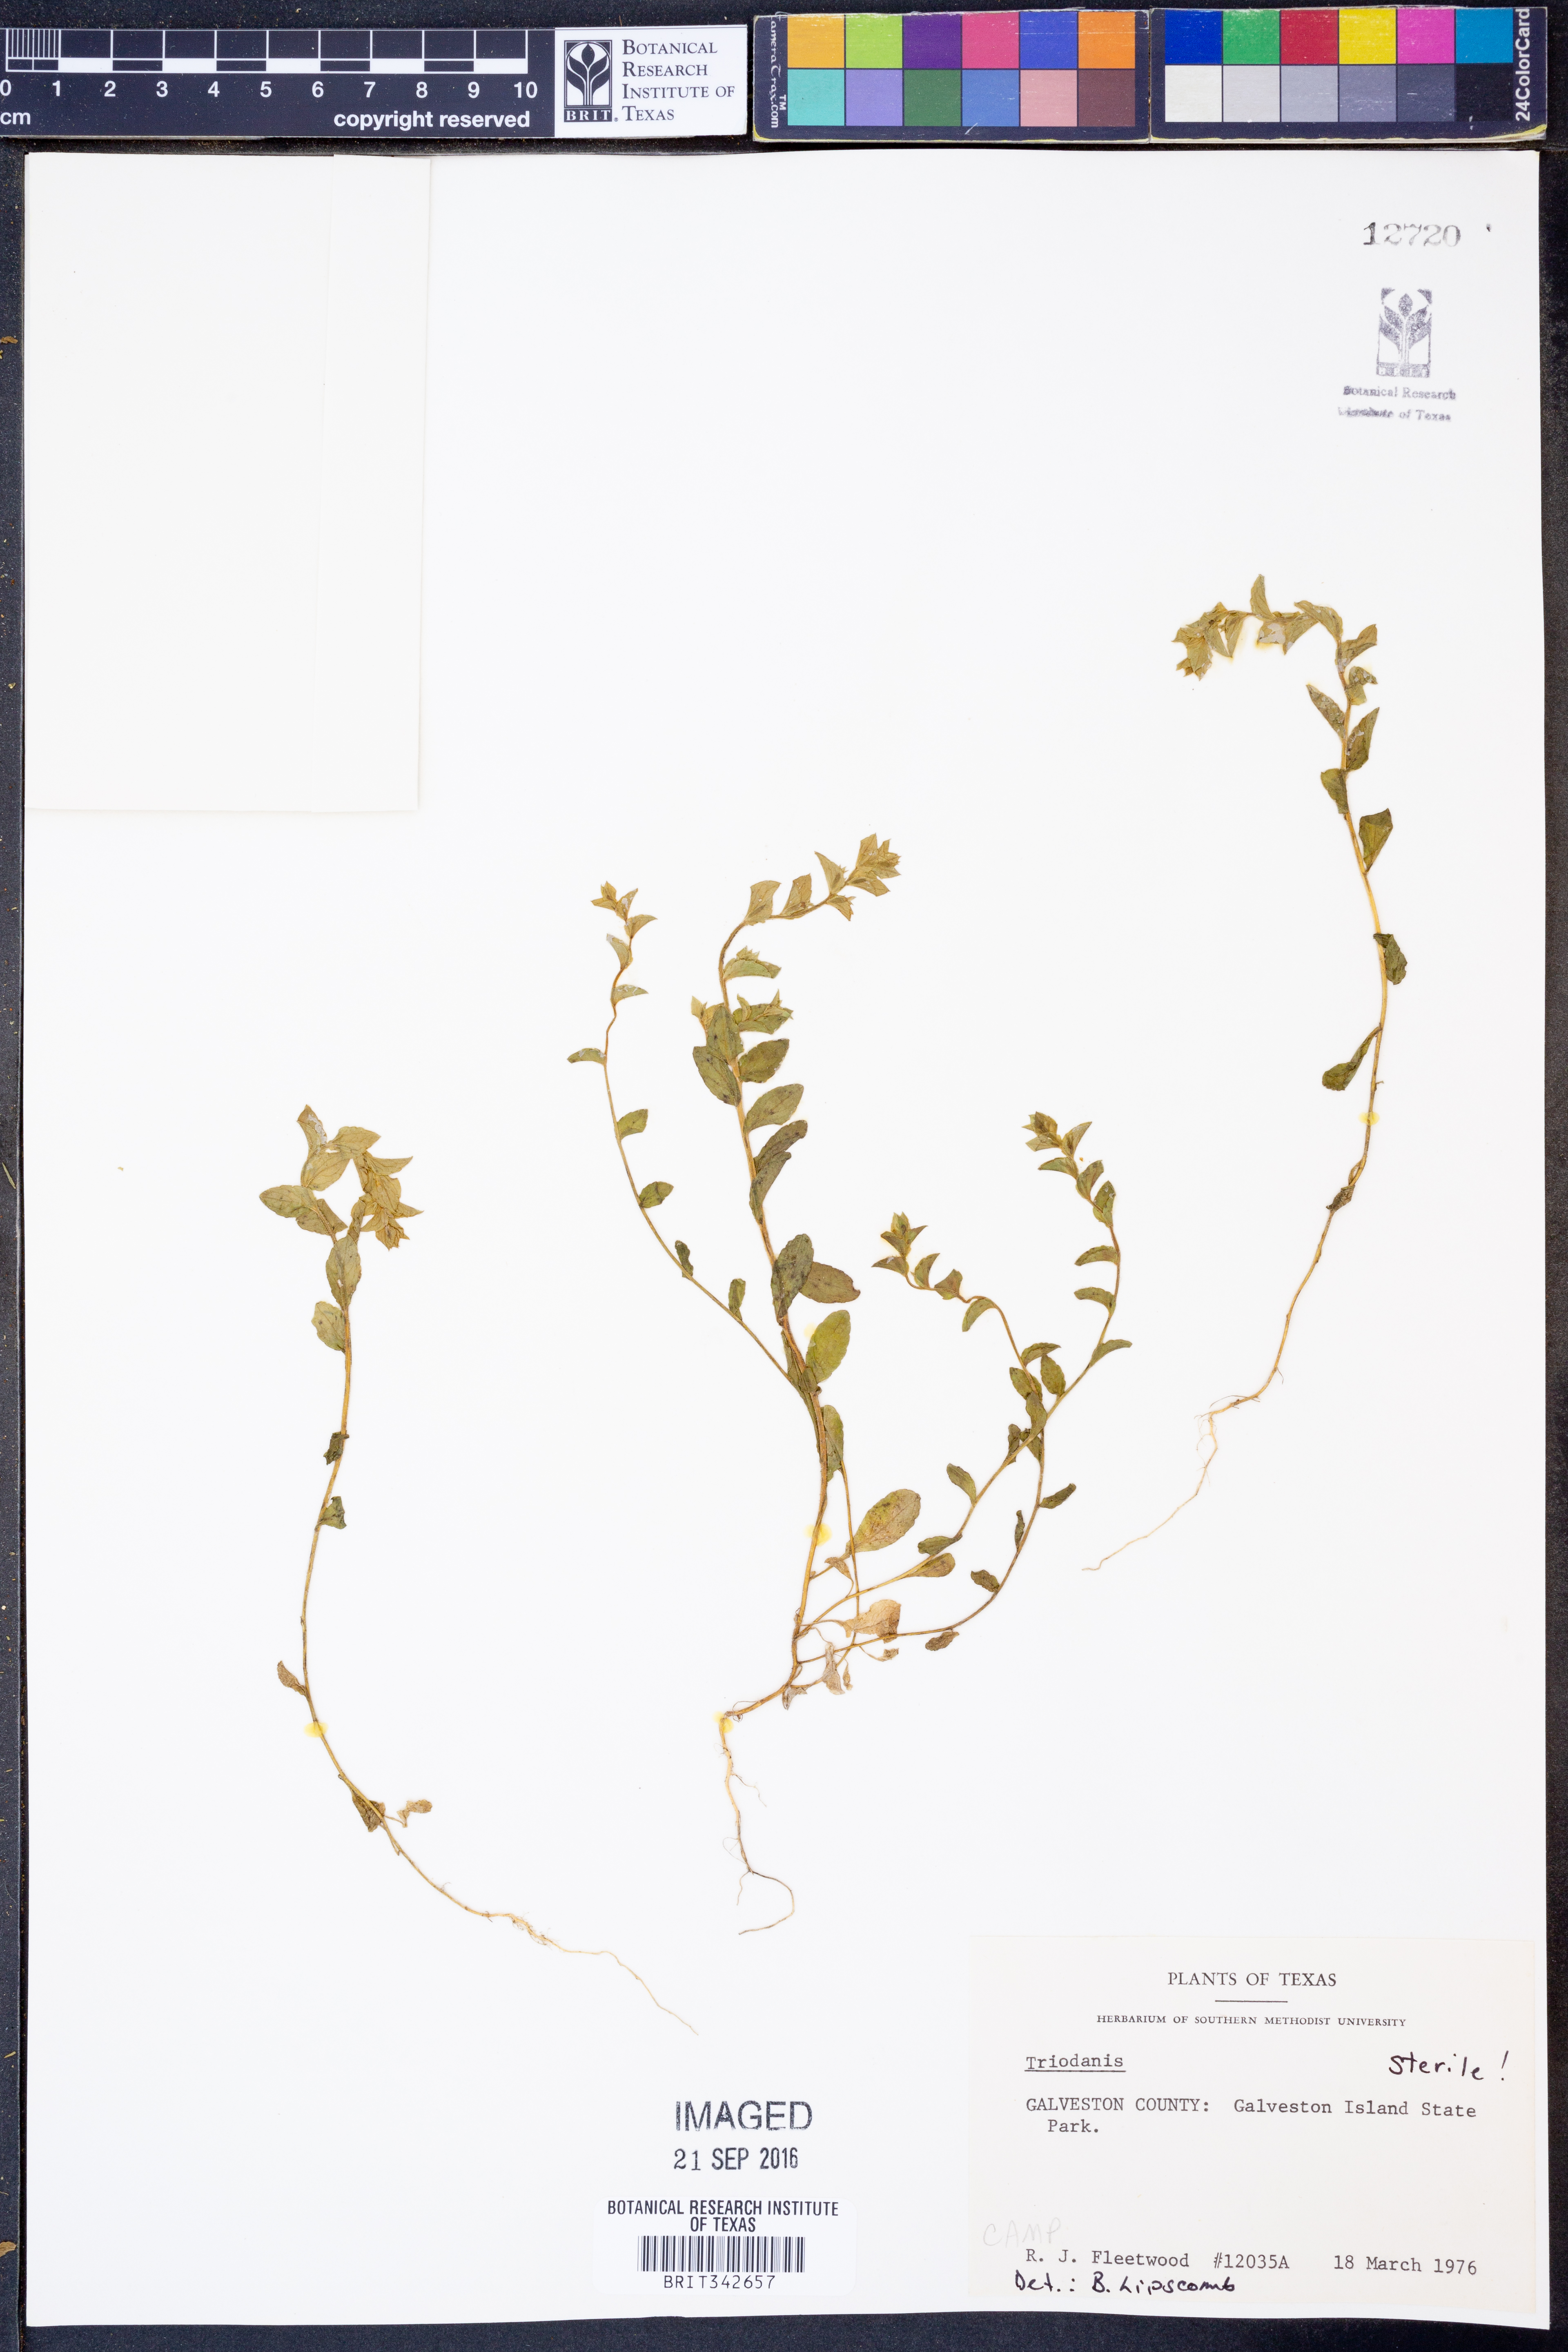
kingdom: Plantae
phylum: Tracheophyta
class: Magnoliopsida
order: Asterales
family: Campanulaceae
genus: Triodanis
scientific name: Triodanis
